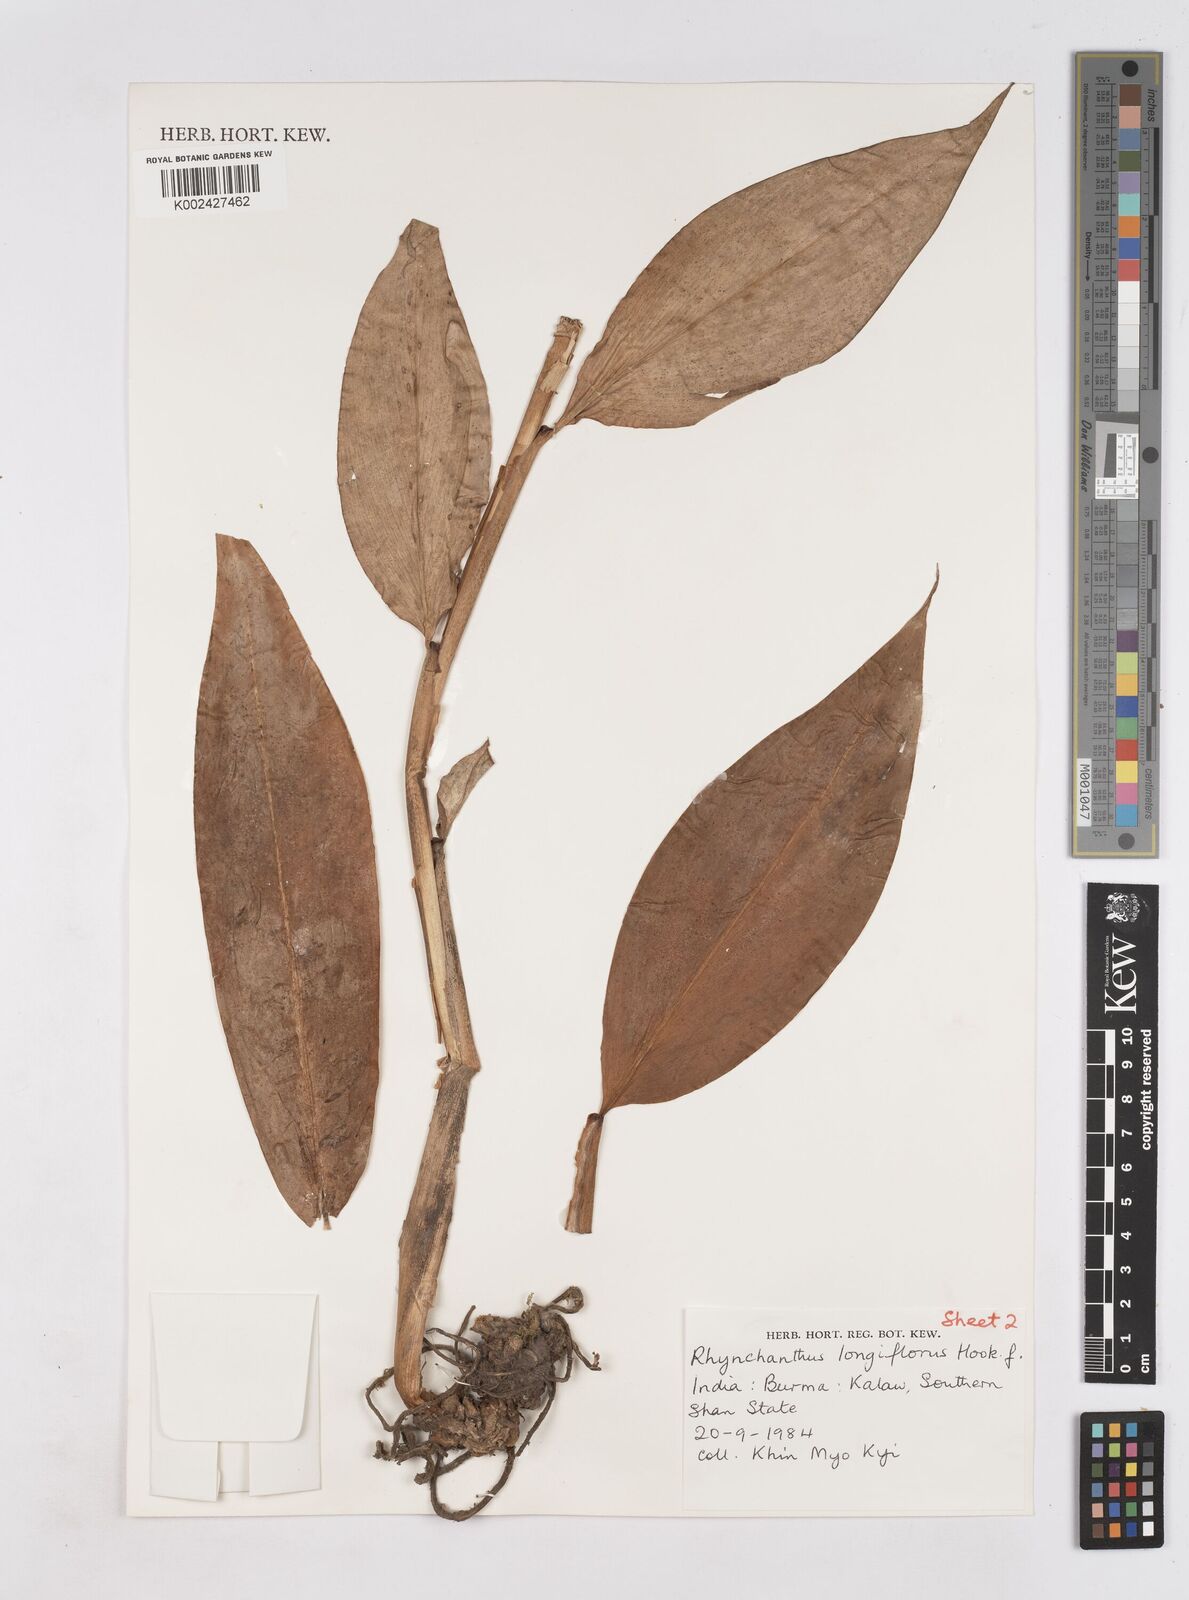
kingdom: Plantae
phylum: Tracheophyta
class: Liliopsida
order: Zingiberales
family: Zingiberaceae
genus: Rhynchanthus
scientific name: Rhynchanthus longiflorus
